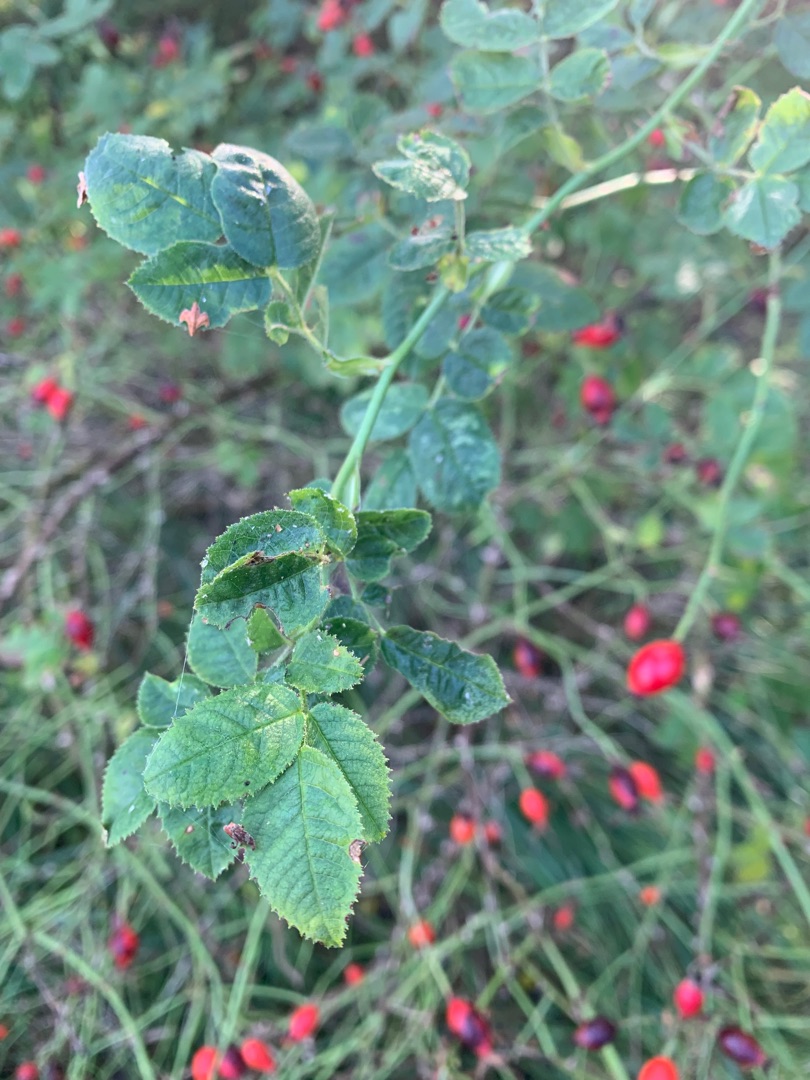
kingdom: Plantae
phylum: Tracheophyta
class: Magnoliopsida
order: Rosales
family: Rosaceae
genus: Rosa
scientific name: Rosa rubiginosa
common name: Æble-rose
